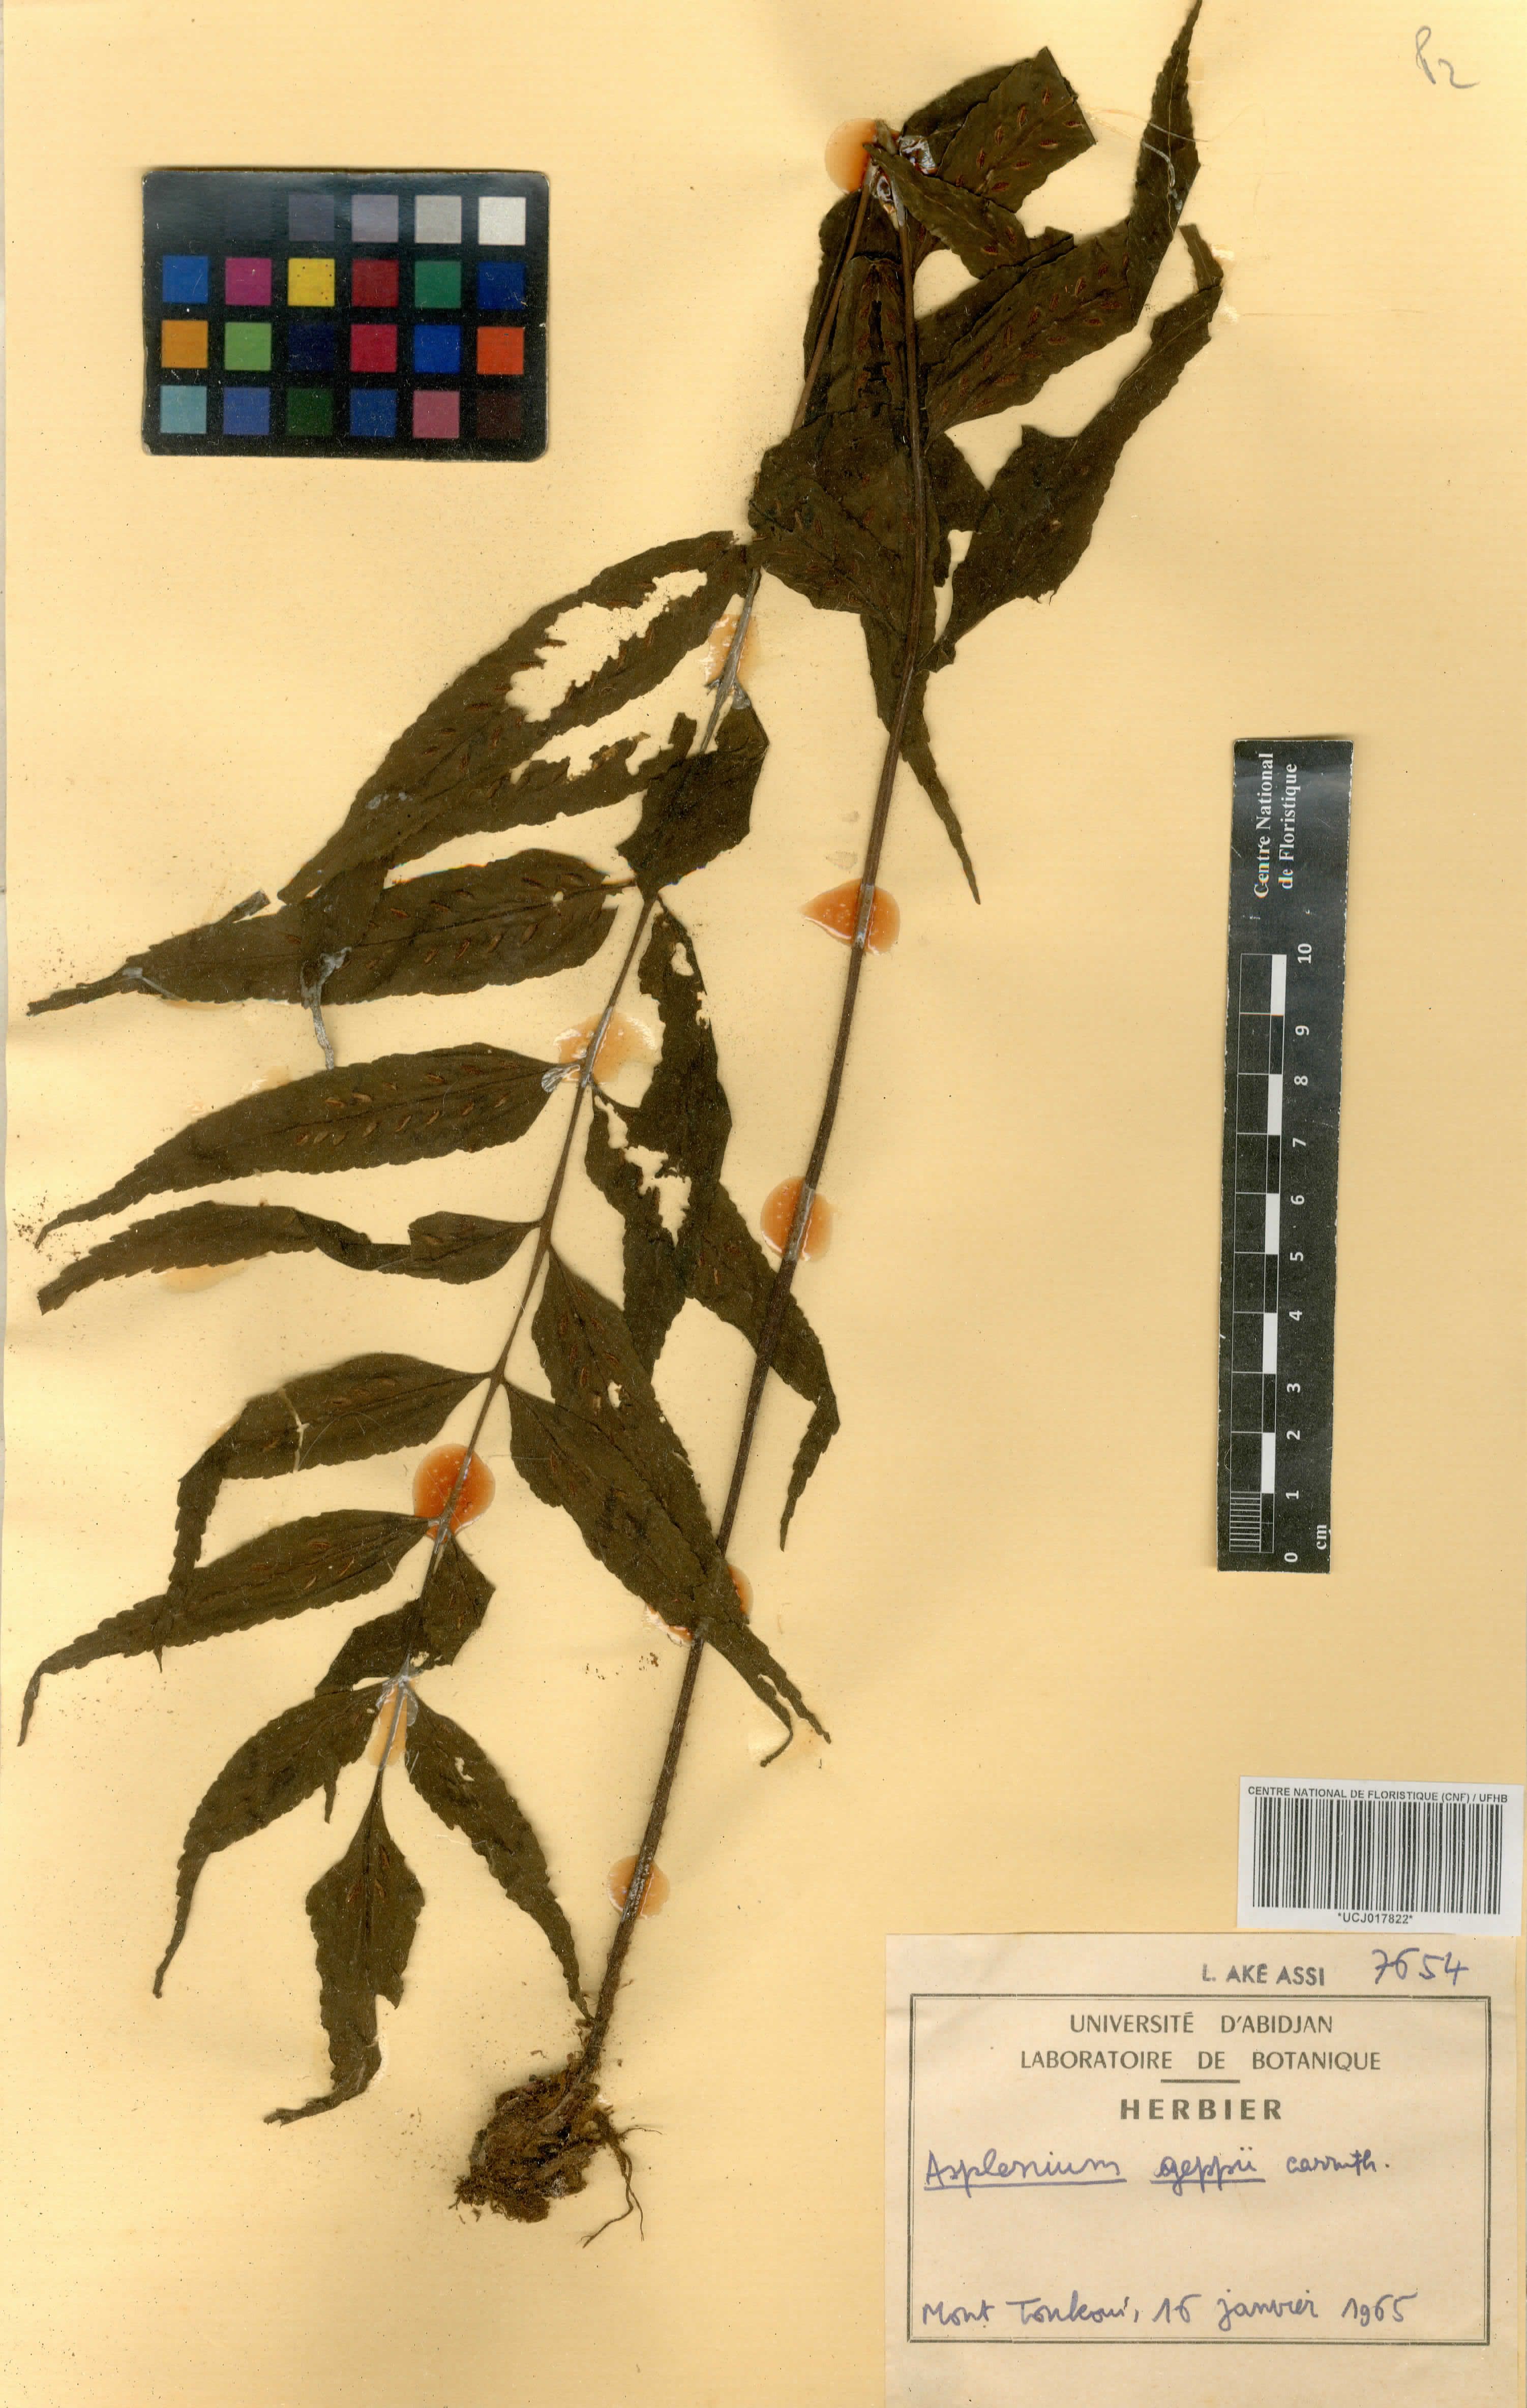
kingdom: Plantae
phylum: Tracheophyta
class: Polypodiopsida
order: Polypodiales
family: Aspleniaceae
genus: Asplenium
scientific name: Asplenium anisophyllum
